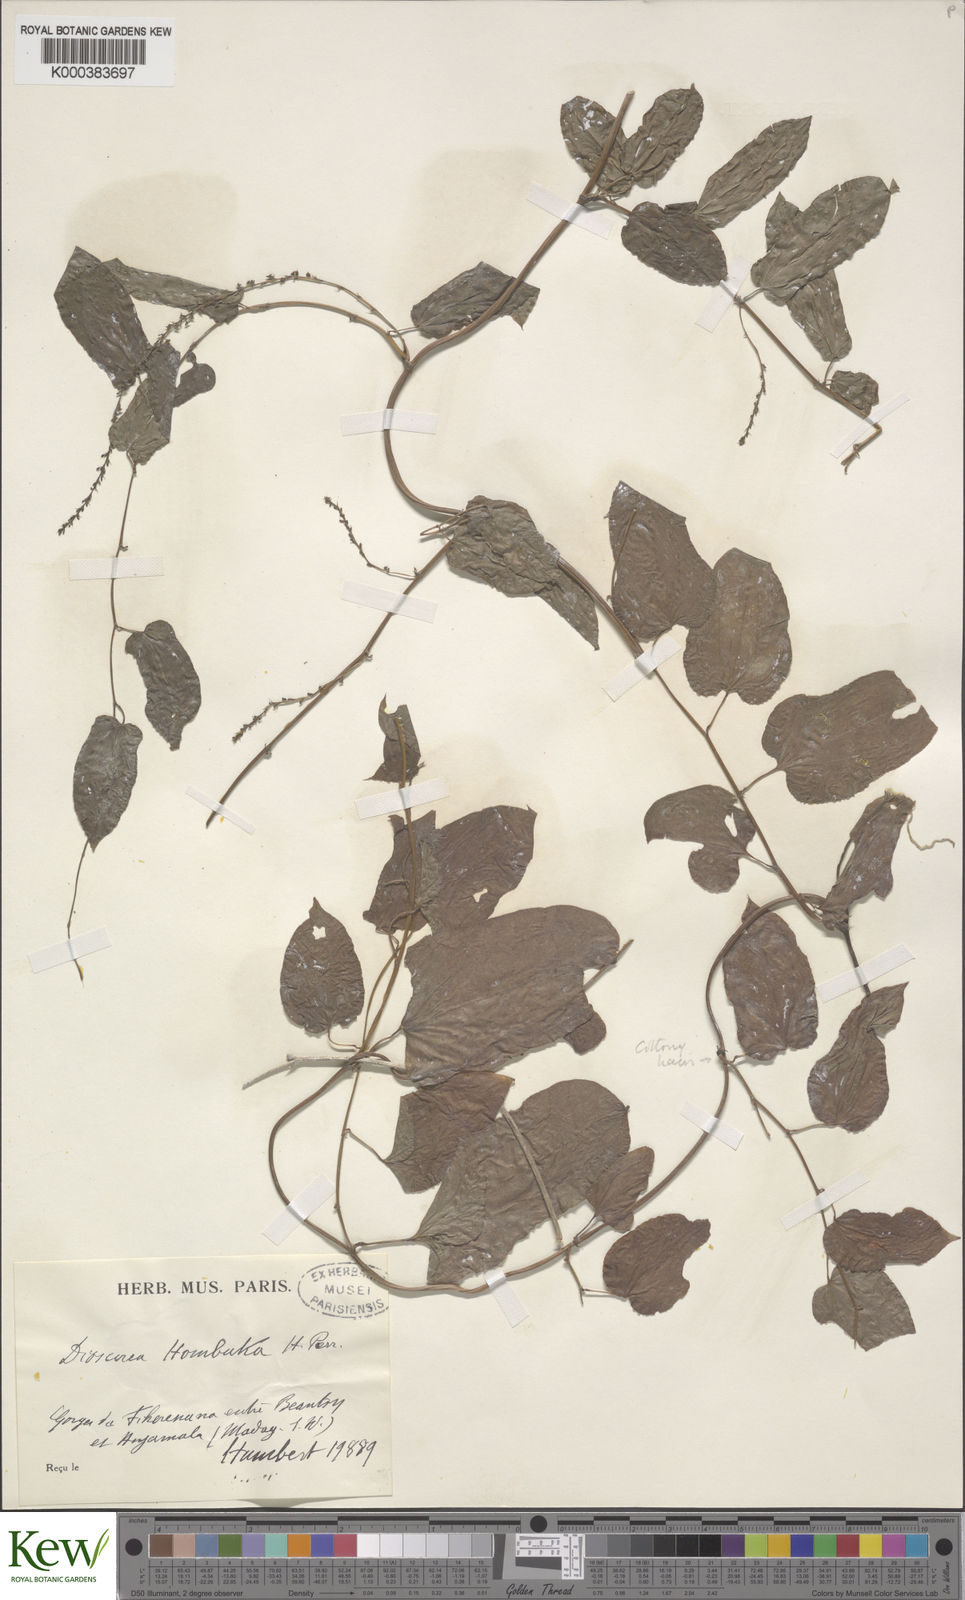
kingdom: Plantae
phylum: Tracheophyta
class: Liliopsida
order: Dioscoreales
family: Dioscoreaceae
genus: Dioscorea
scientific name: Dioscorea hombuka
